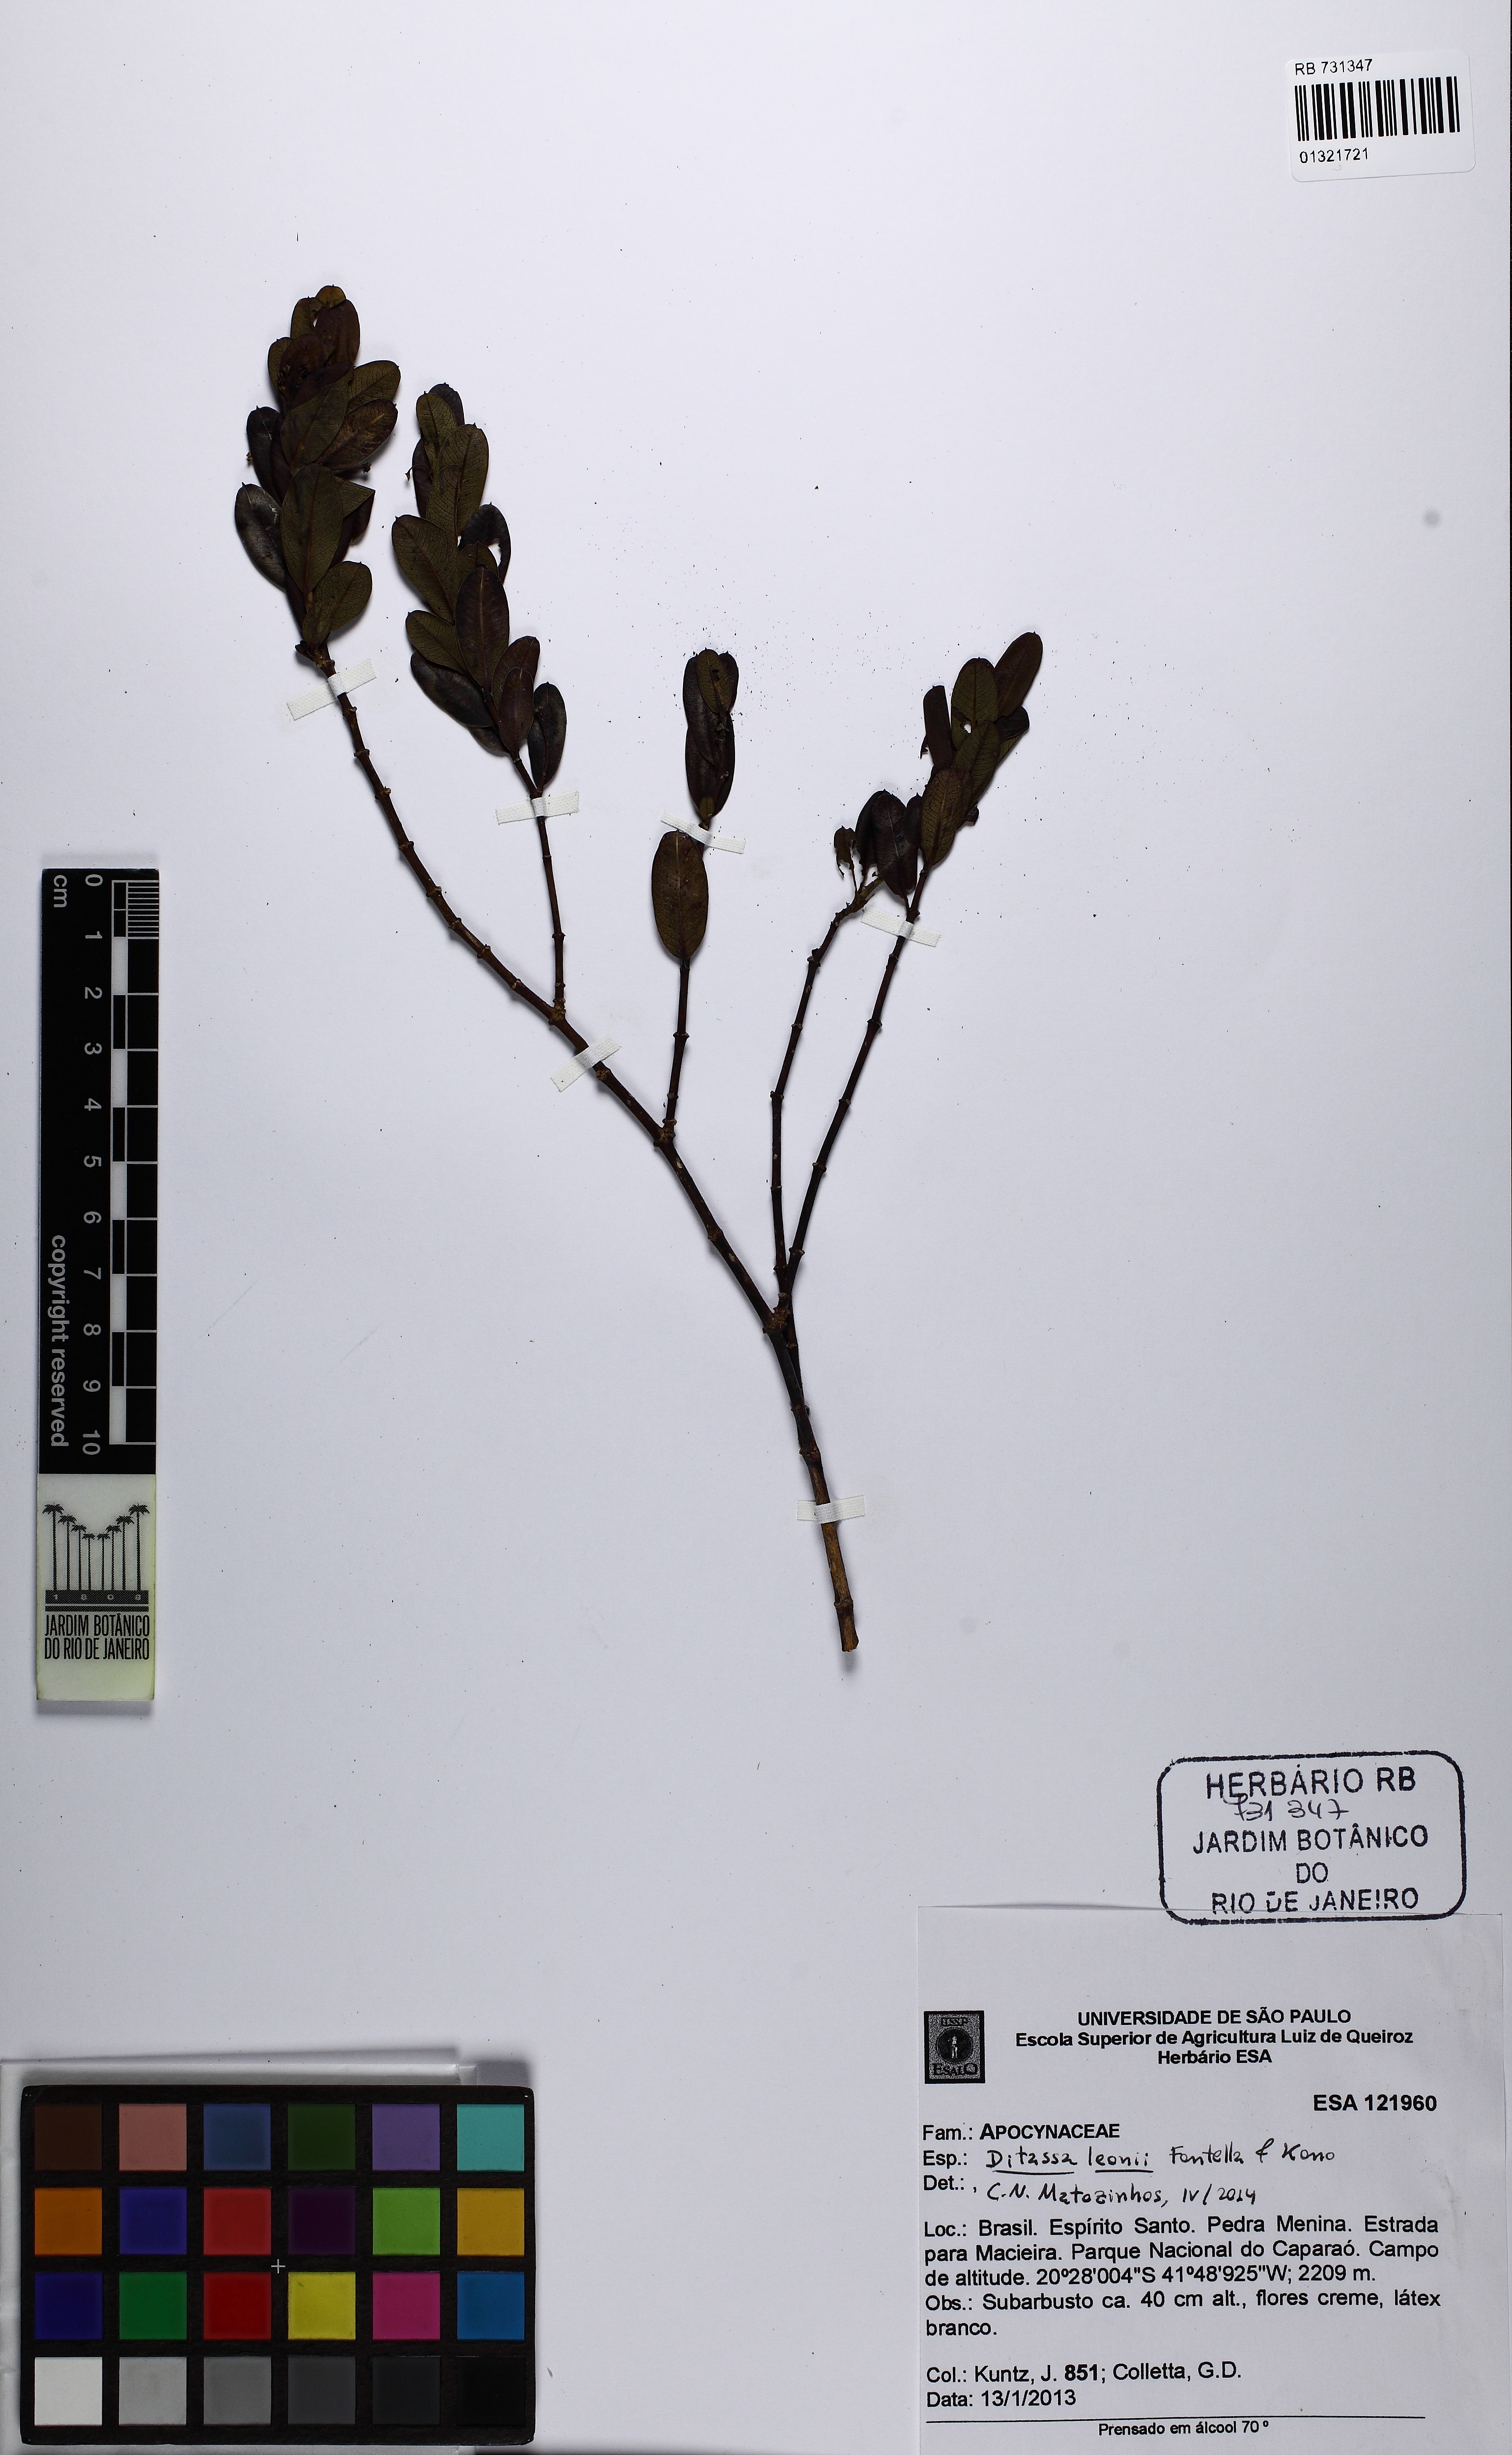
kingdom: Plantae
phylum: Tracheophyta
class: Magnoliopsida
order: Gentianales
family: Apocynaceae
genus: Ditassa
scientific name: Ditassa leonii
